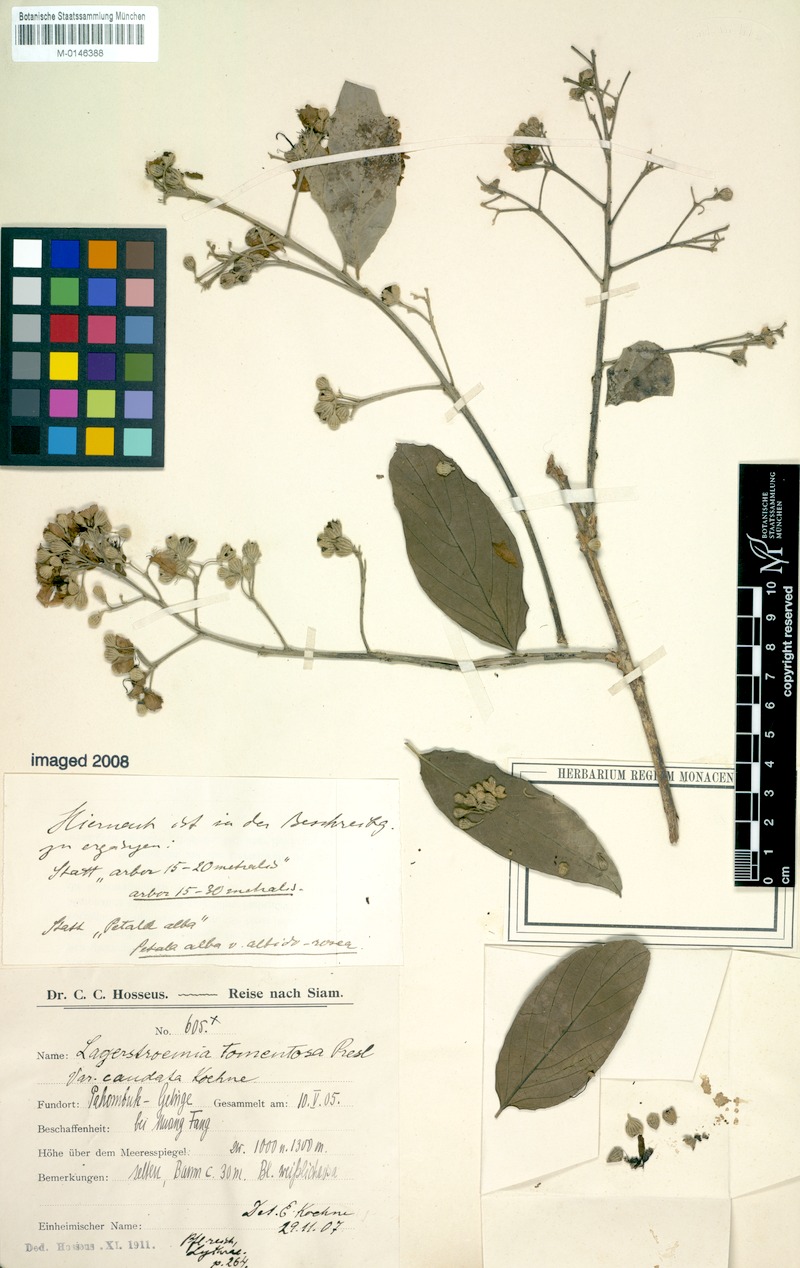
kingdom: Plantae
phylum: Tracheophyta
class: Magnoliopsida
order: Myrtales
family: Lythraceae
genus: Lagerstroemia
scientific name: Lagerstroemia tomentosa
